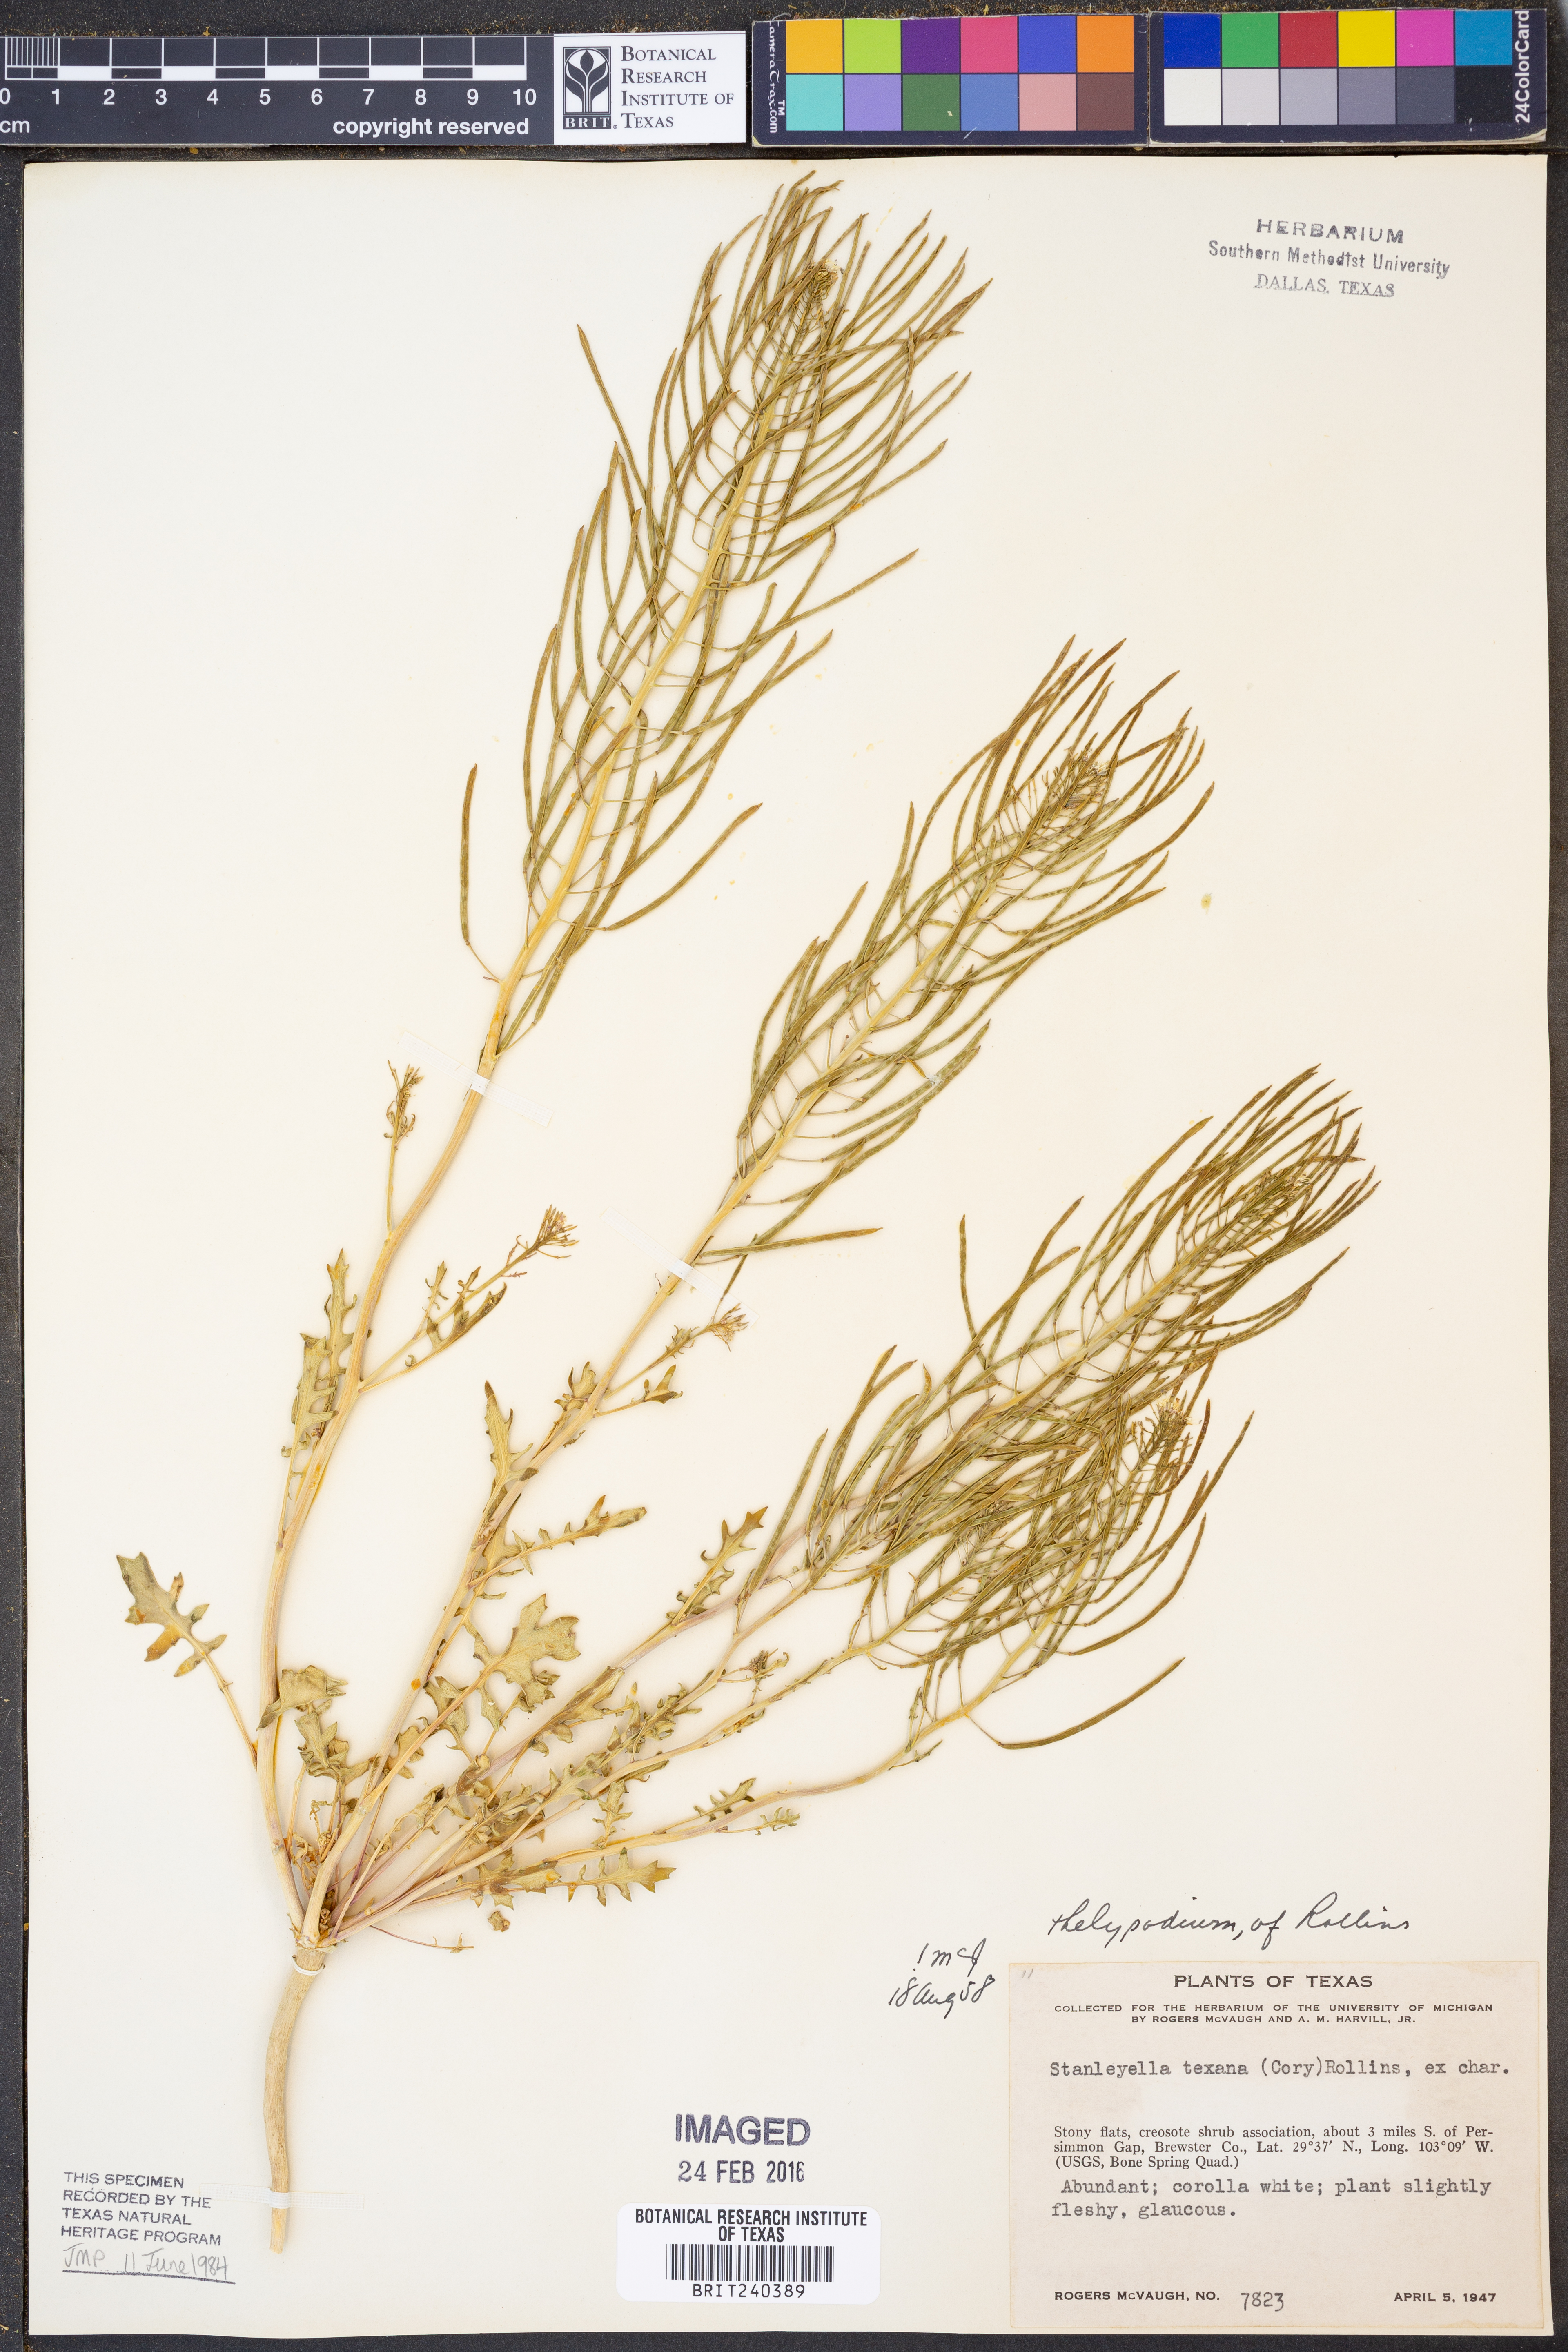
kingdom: Plantae
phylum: Tracheophyta
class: Magnoliopsida
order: Brassicales
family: Brassicaceae
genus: Thelypodium
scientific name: Thelypodium texanum
